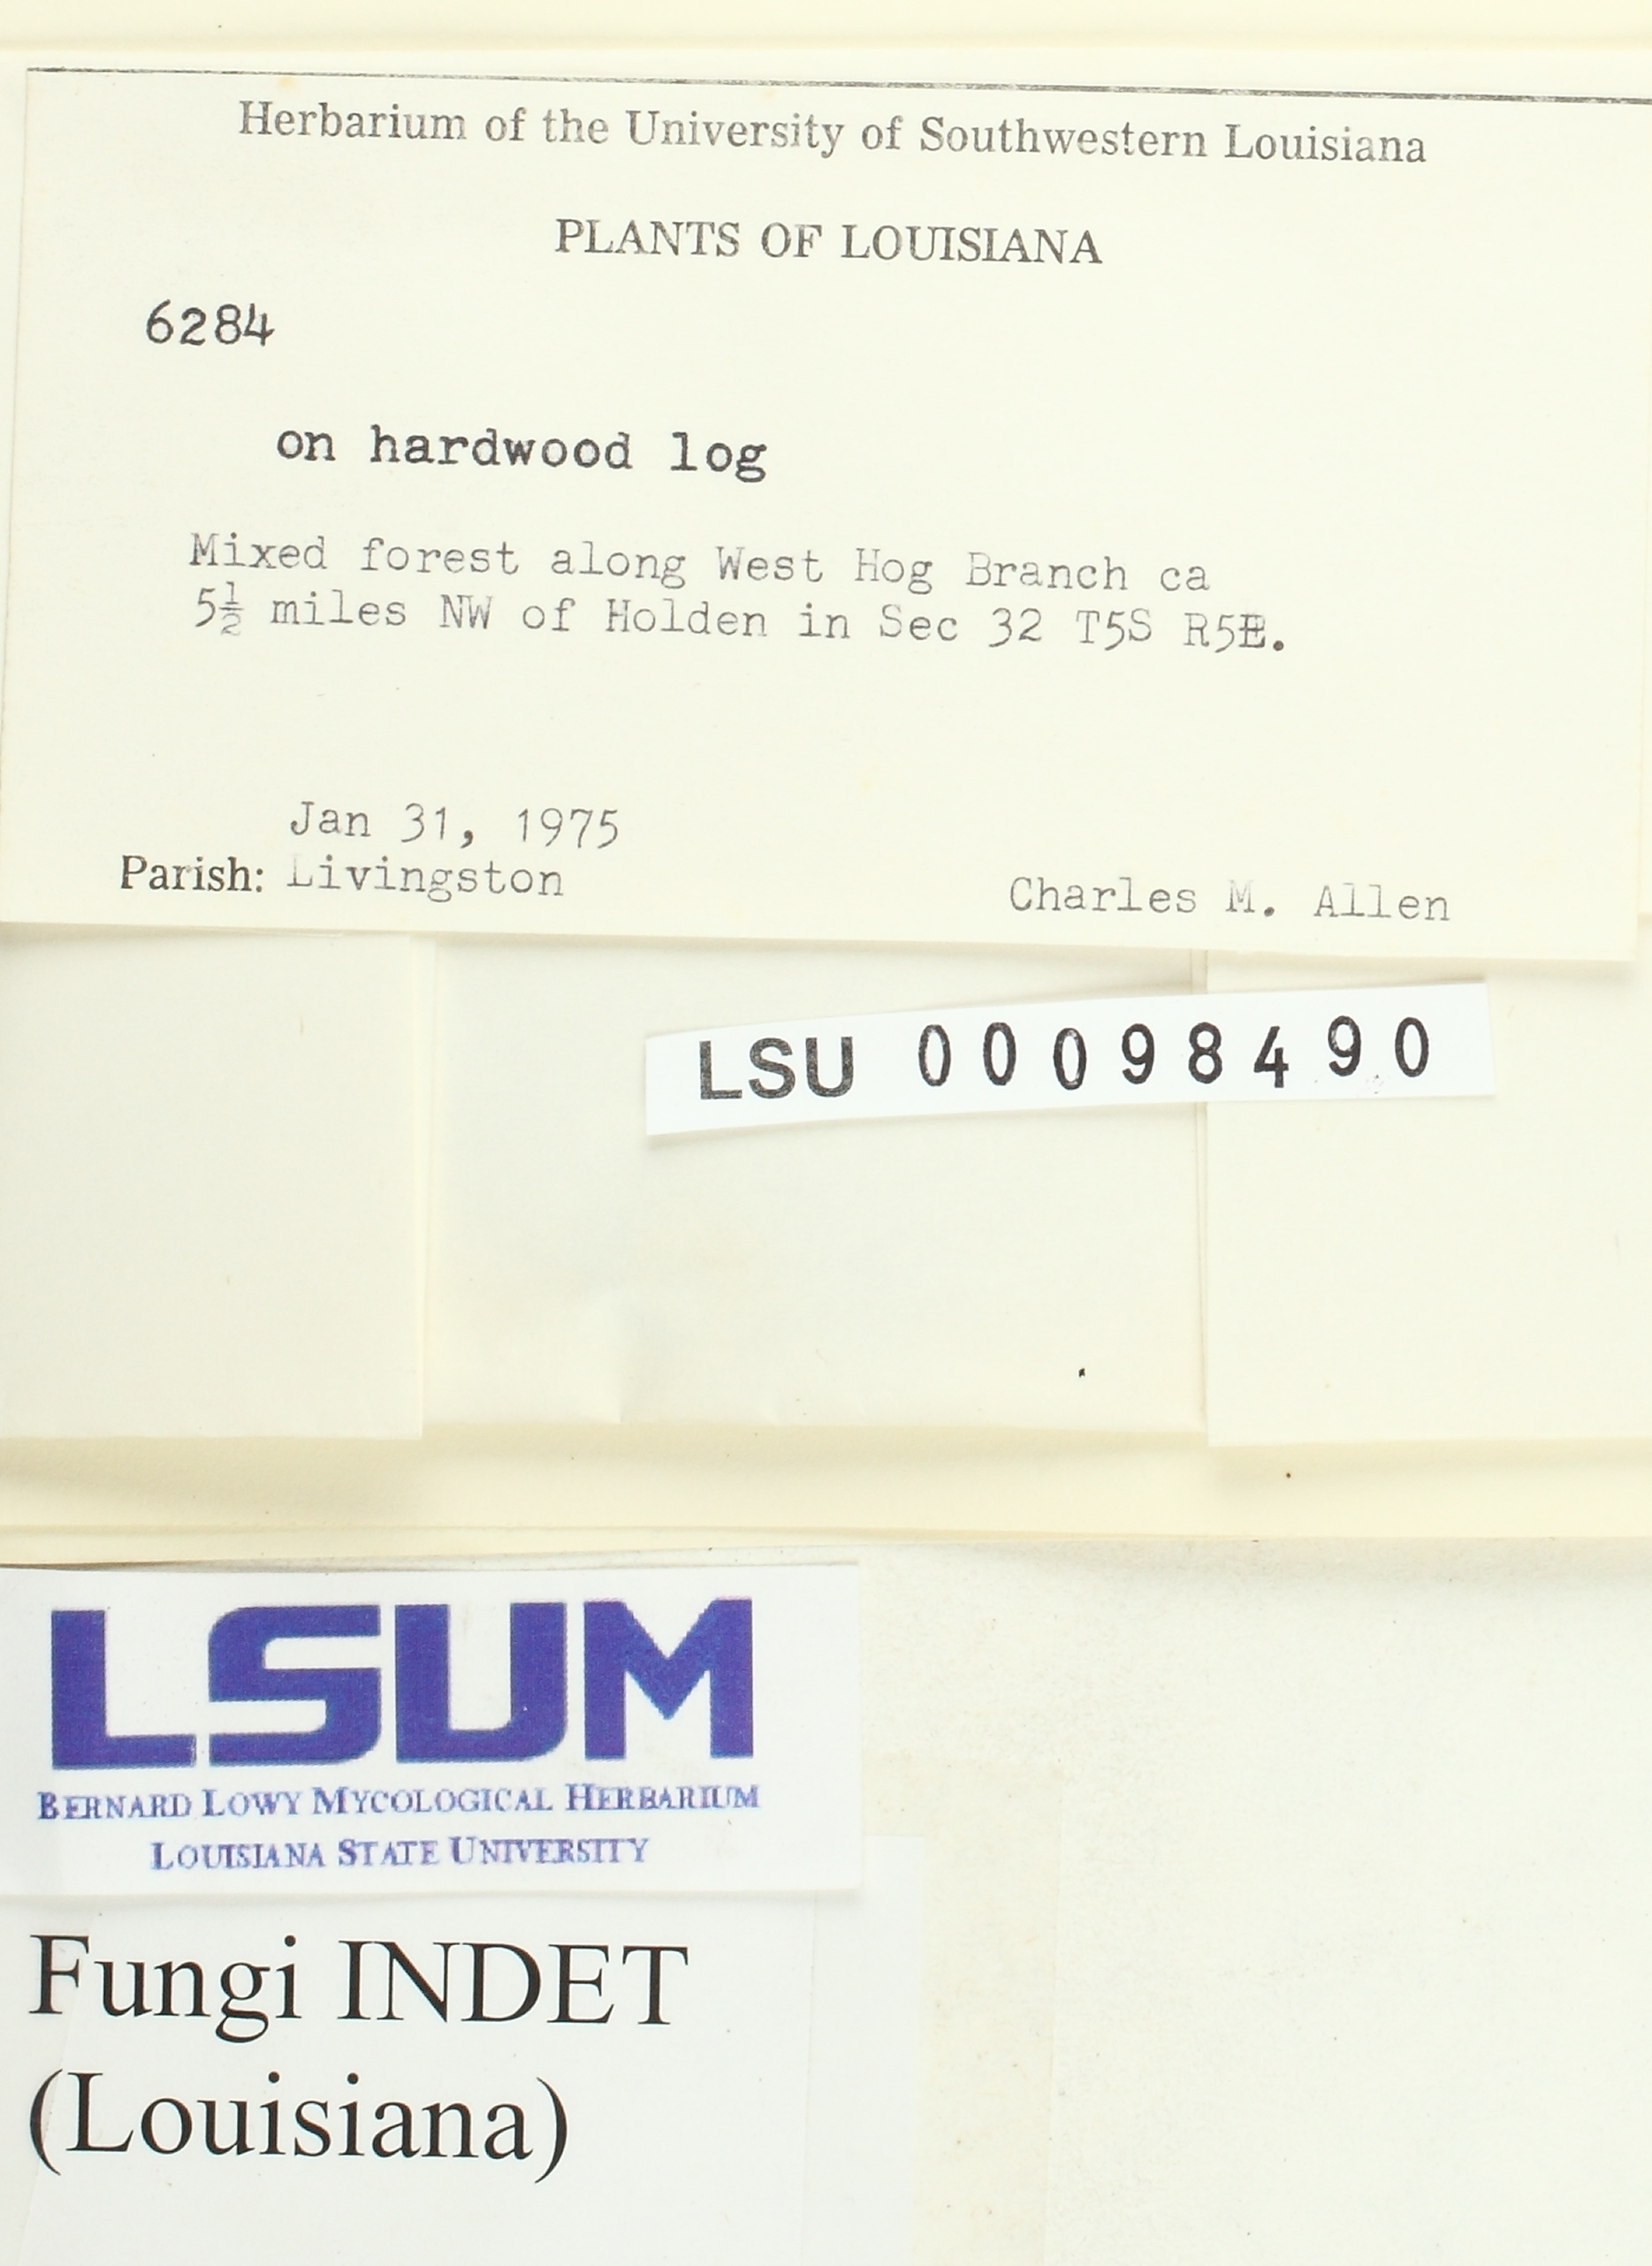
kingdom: Fungi
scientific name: Fungi
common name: Fungi
